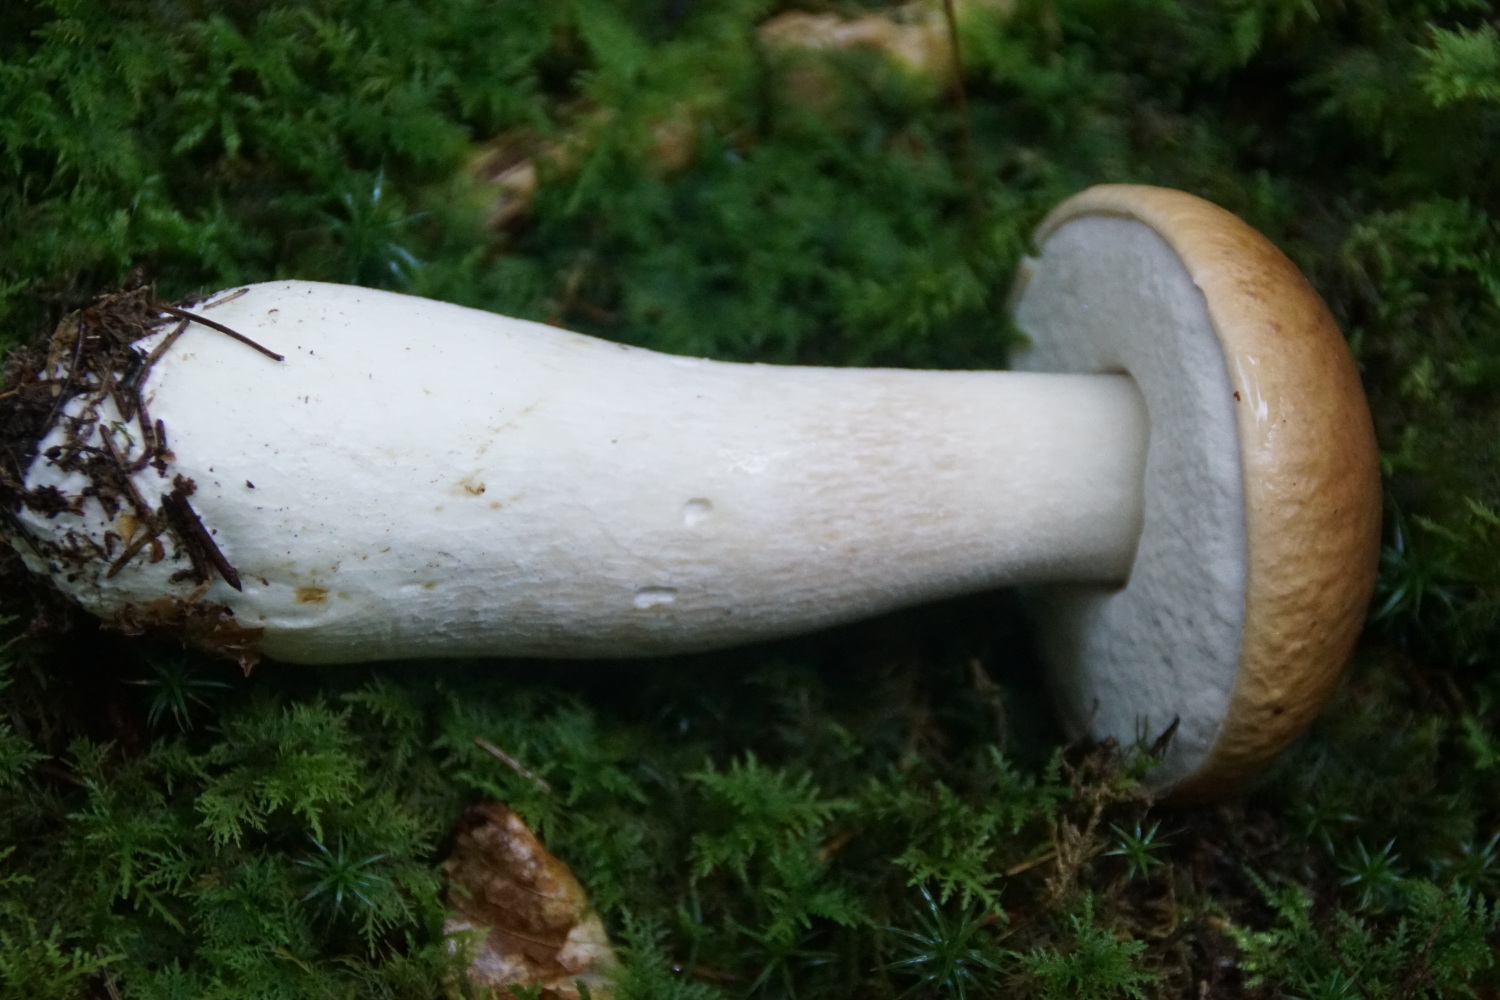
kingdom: Fungi
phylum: Basidiomycota
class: Agaricomycetes
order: Boletales
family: Boletaceae
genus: Boletus
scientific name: Boletus edulis
